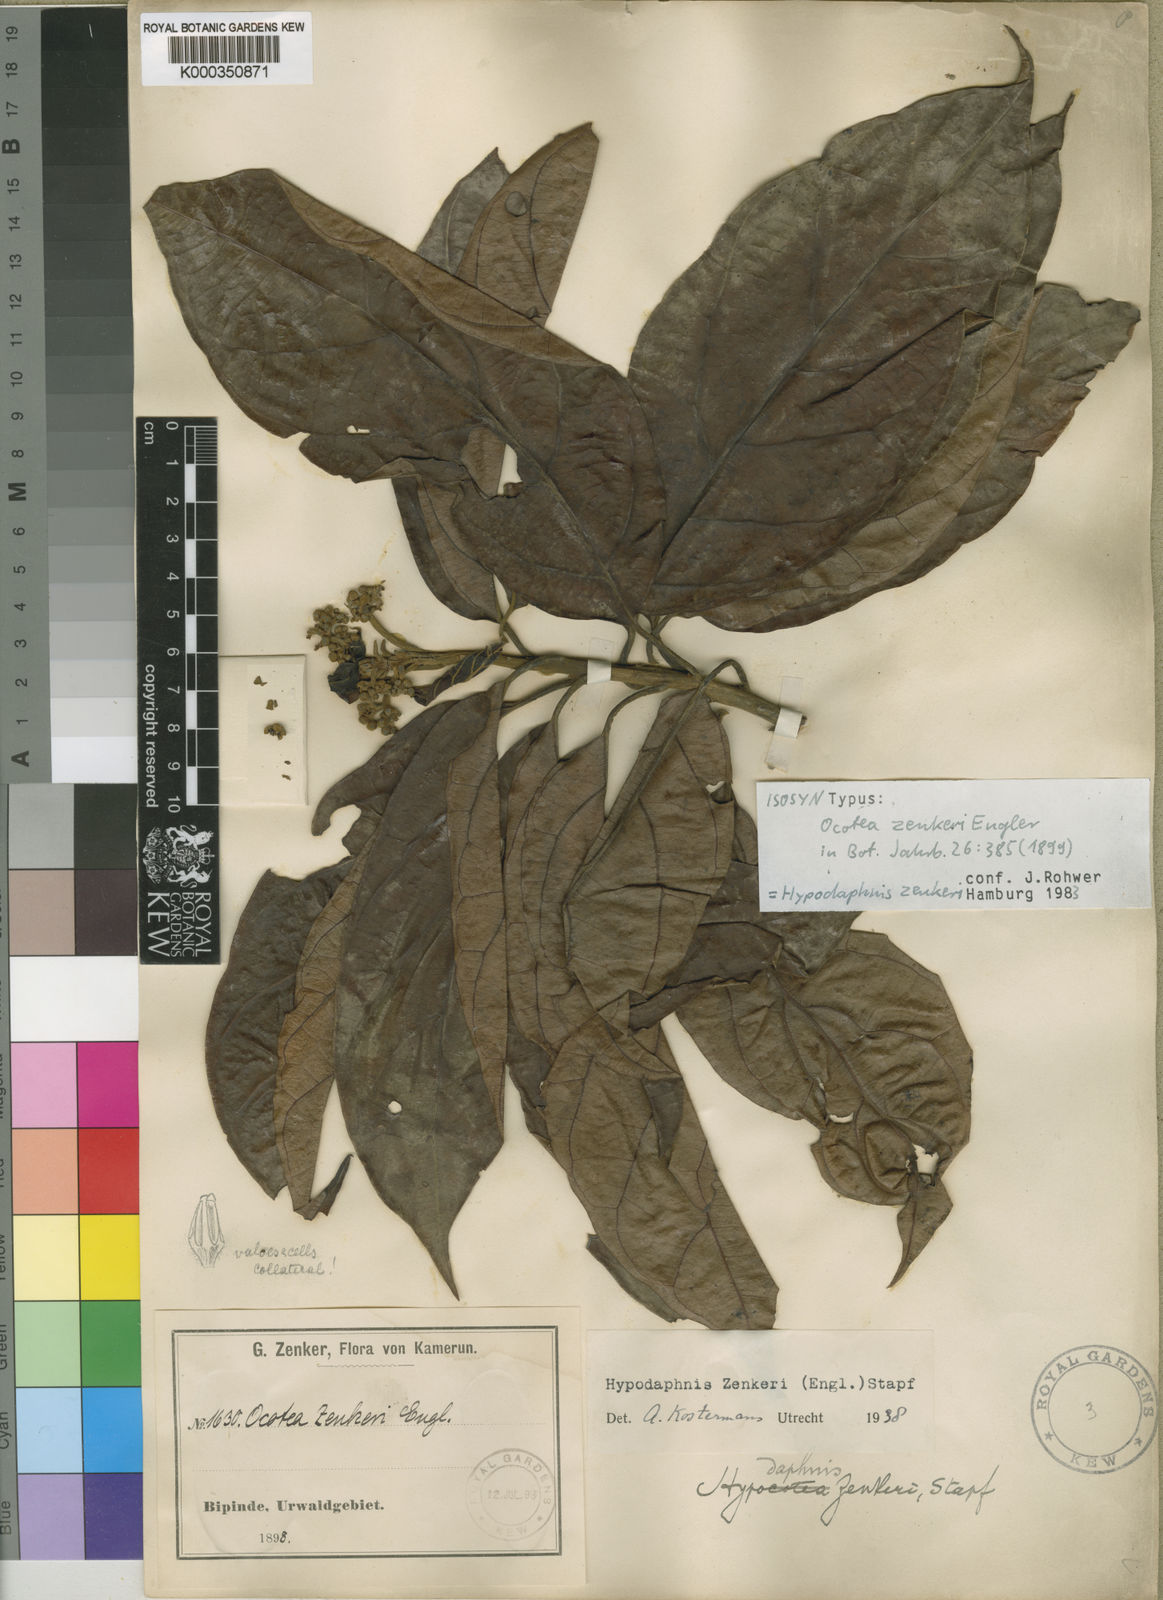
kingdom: Plantae
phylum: Tracheophyta
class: Magnoliopsida
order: Laurales
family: Lauraceae
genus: Hypodaphnis
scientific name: Hypodaphnis zenkeri
